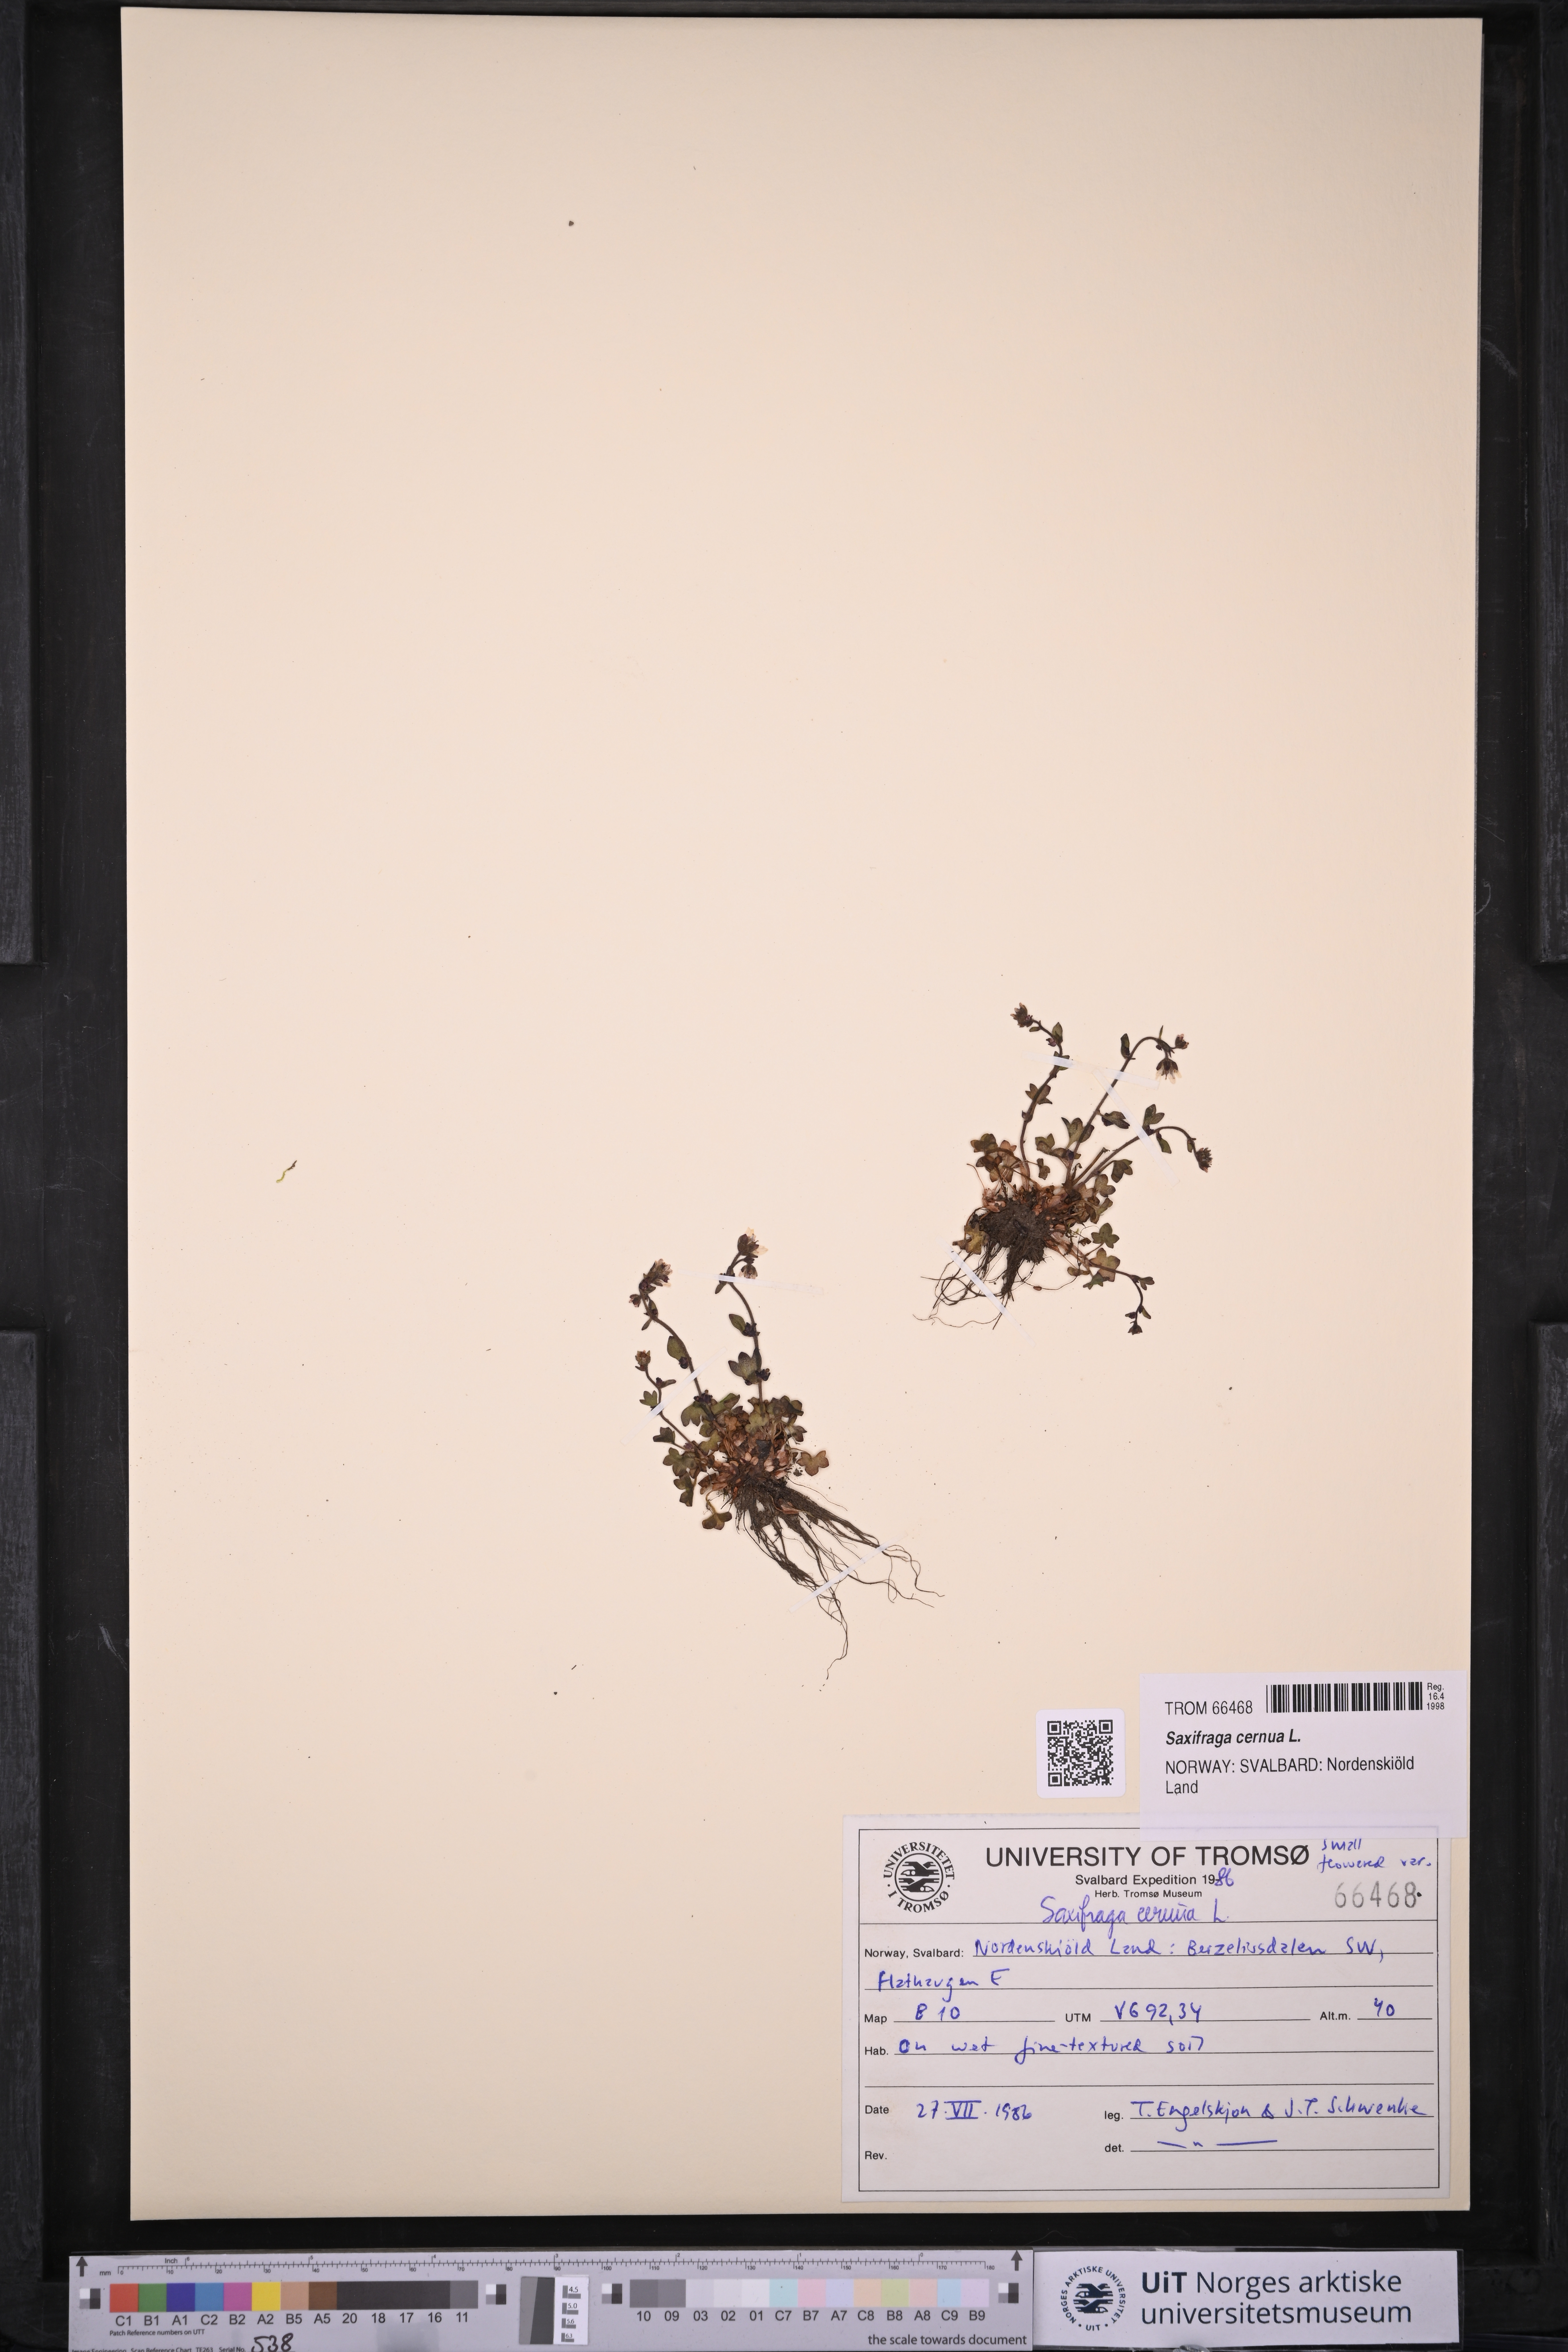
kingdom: Plantae
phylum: Tracheophyta
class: Magnoliopsida
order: Saxifragales
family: Saxifragaceae
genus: Saxifraga
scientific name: Saxifraga cernua
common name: Drooping saxifrage
